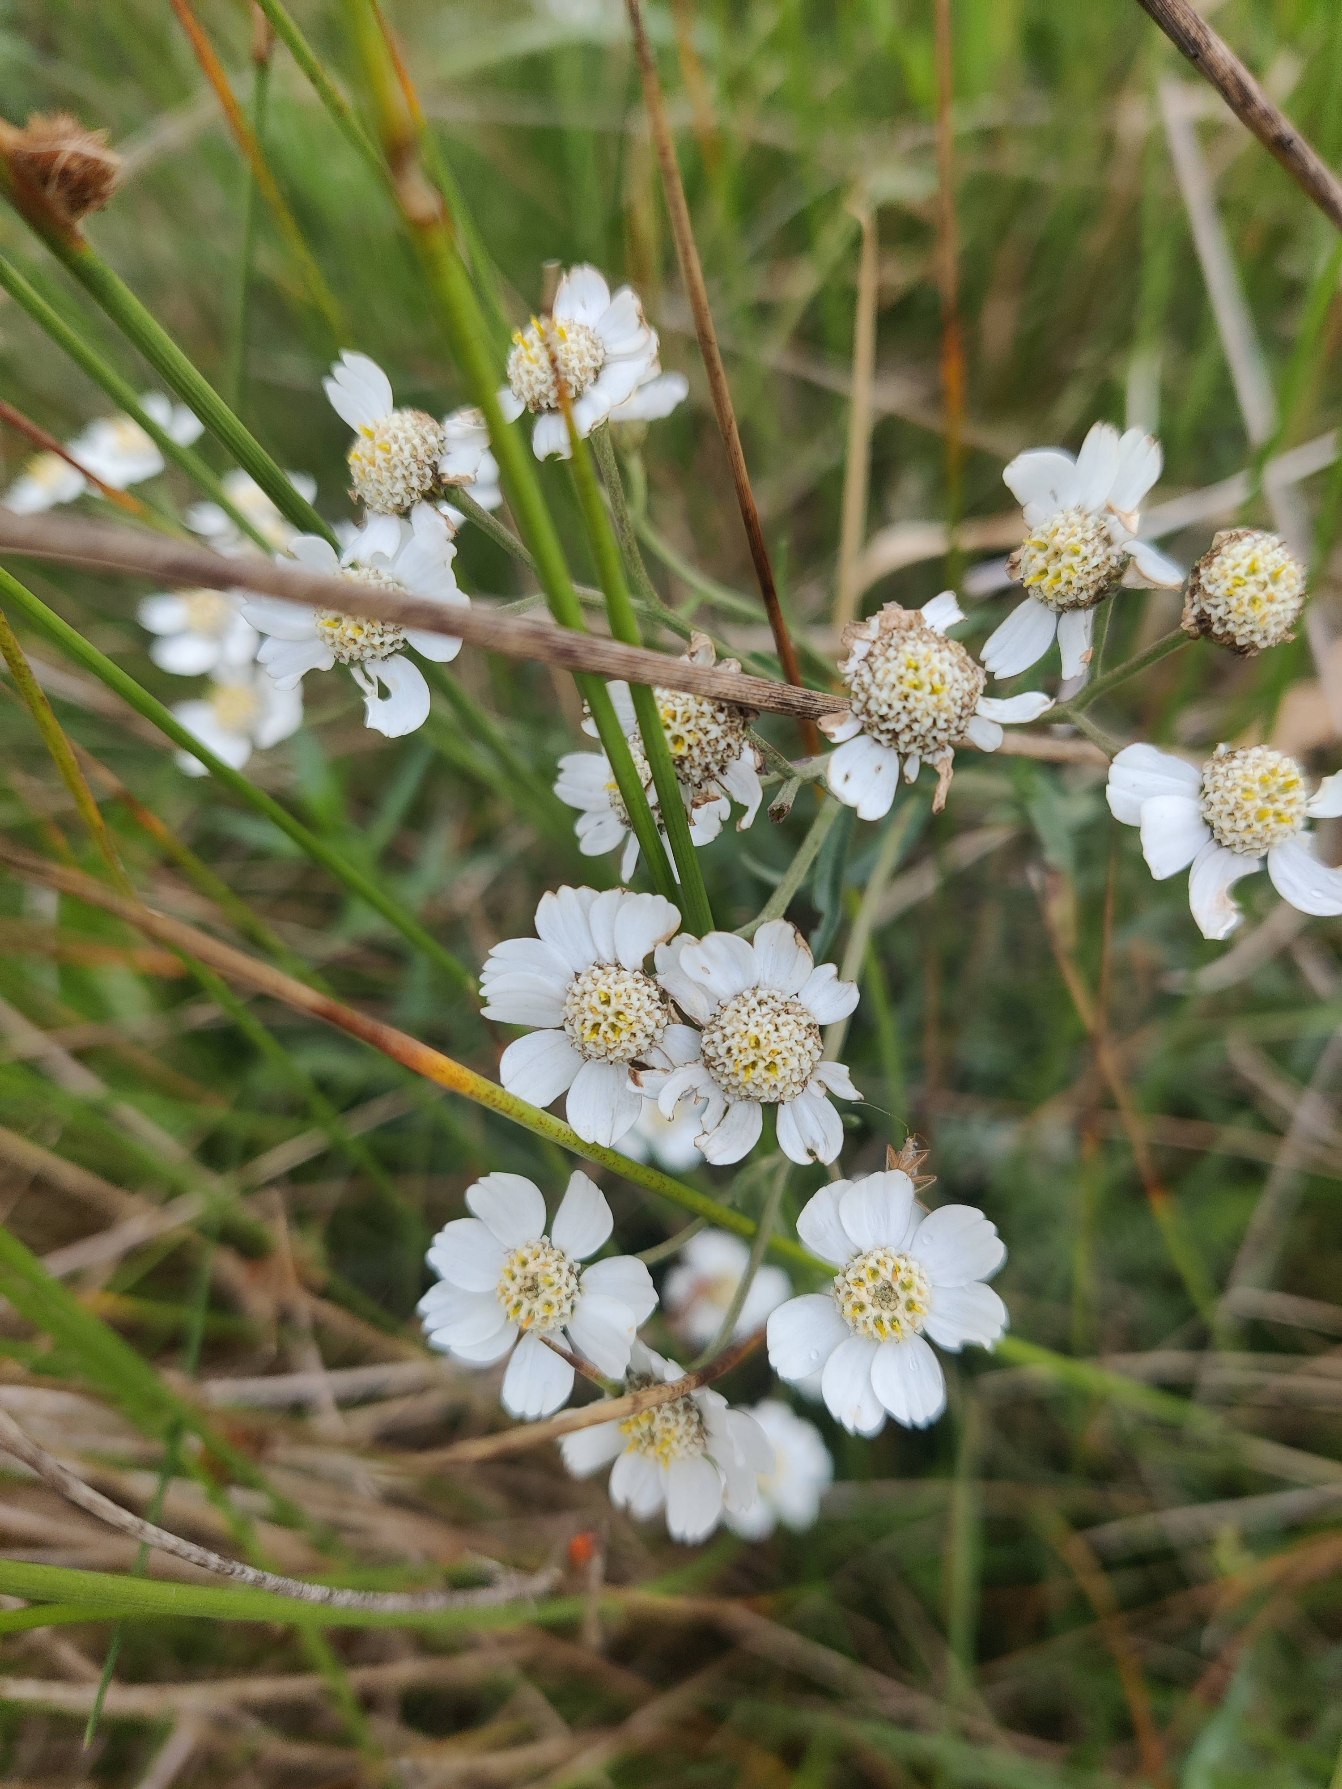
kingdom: Plantae
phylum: Tracheophyta
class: Magnoliopsida
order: Asterales
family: Asteraceae
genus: Achillea
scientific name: Achillea ptarmica
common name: Nyse-røllike
